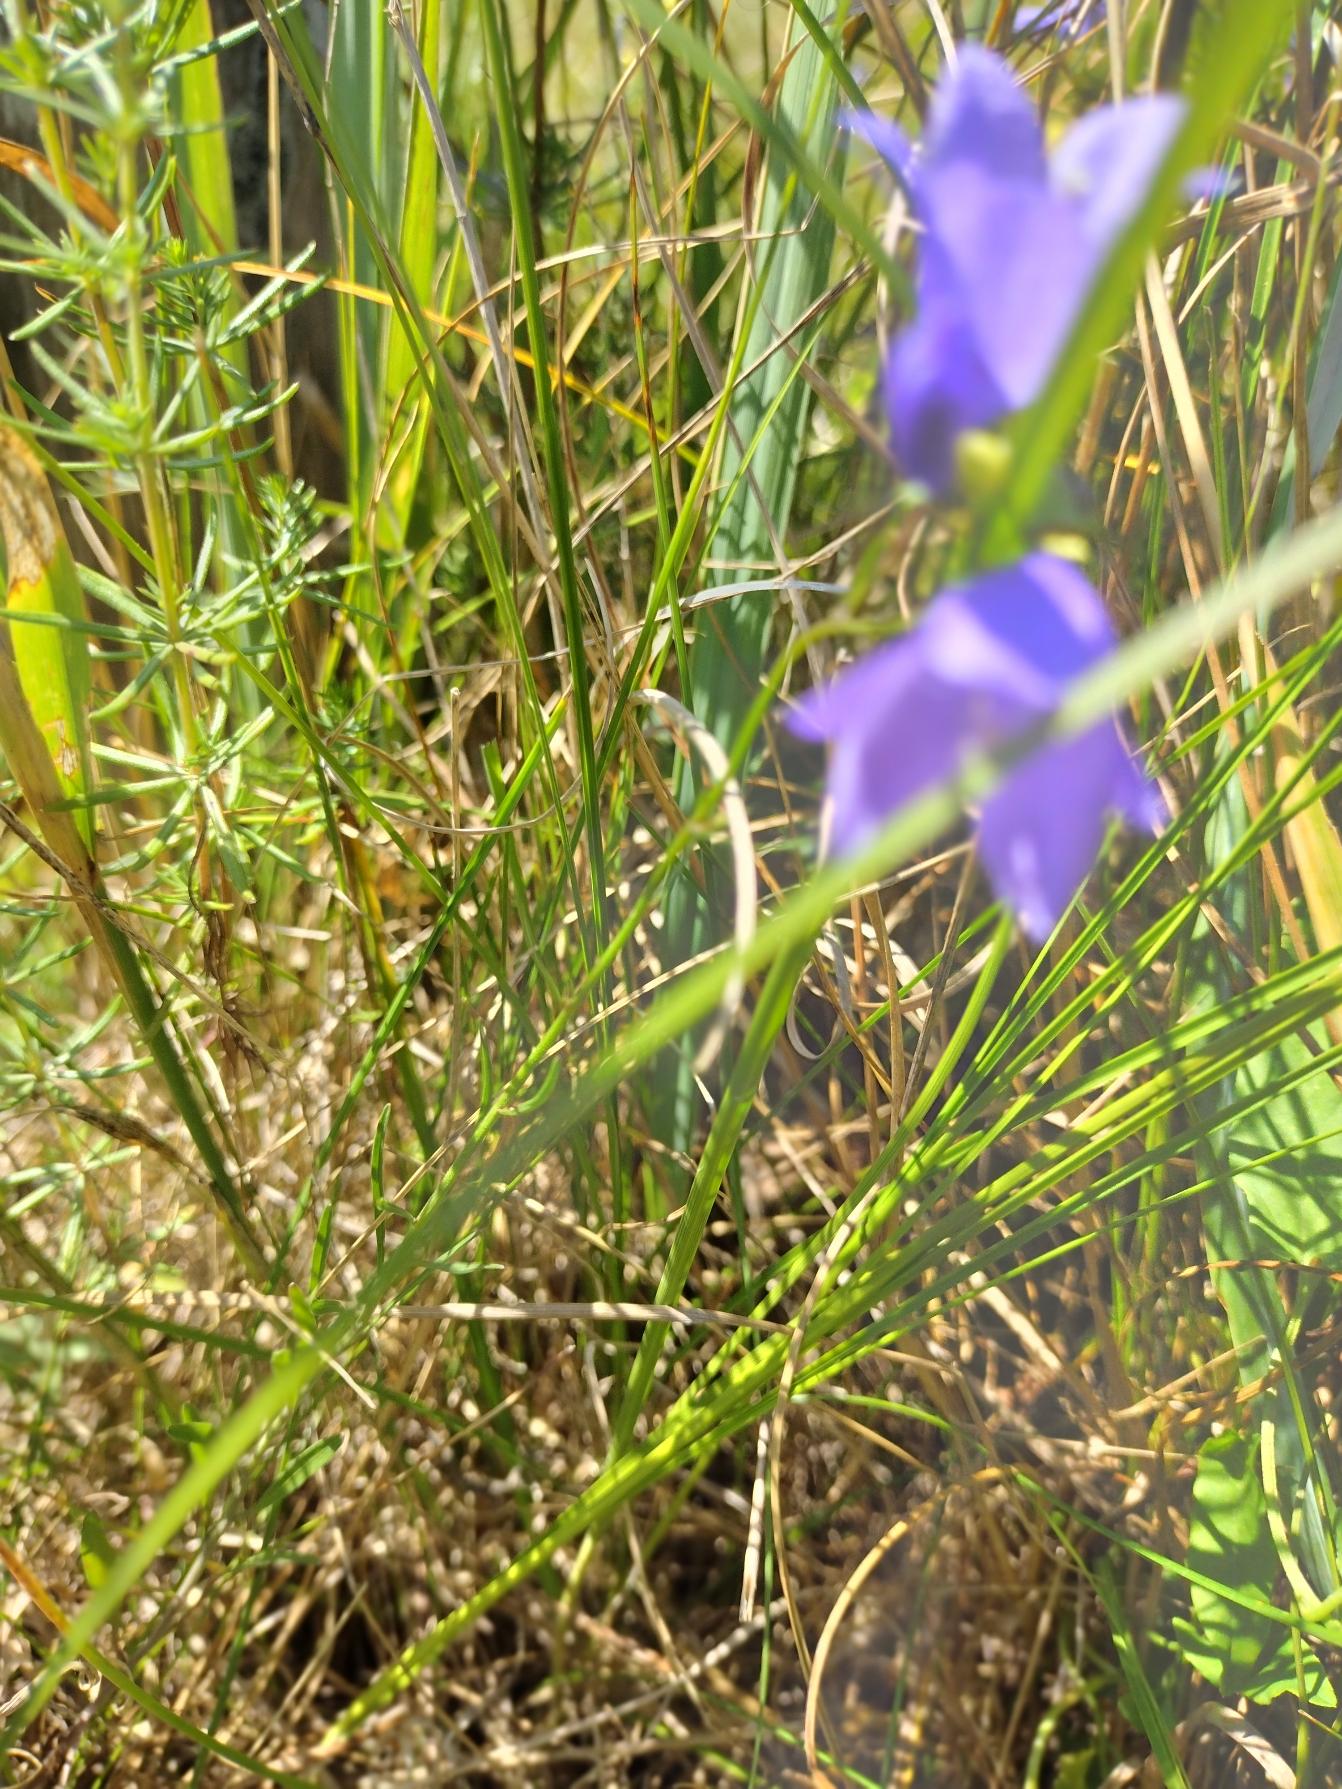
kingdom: Plantae
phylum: Tracheophyta
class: Magnoliopsida
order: Asterales
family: Campanulaceae
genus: Campanula
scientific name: Campanula rotundifolia
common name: Liden klokke
